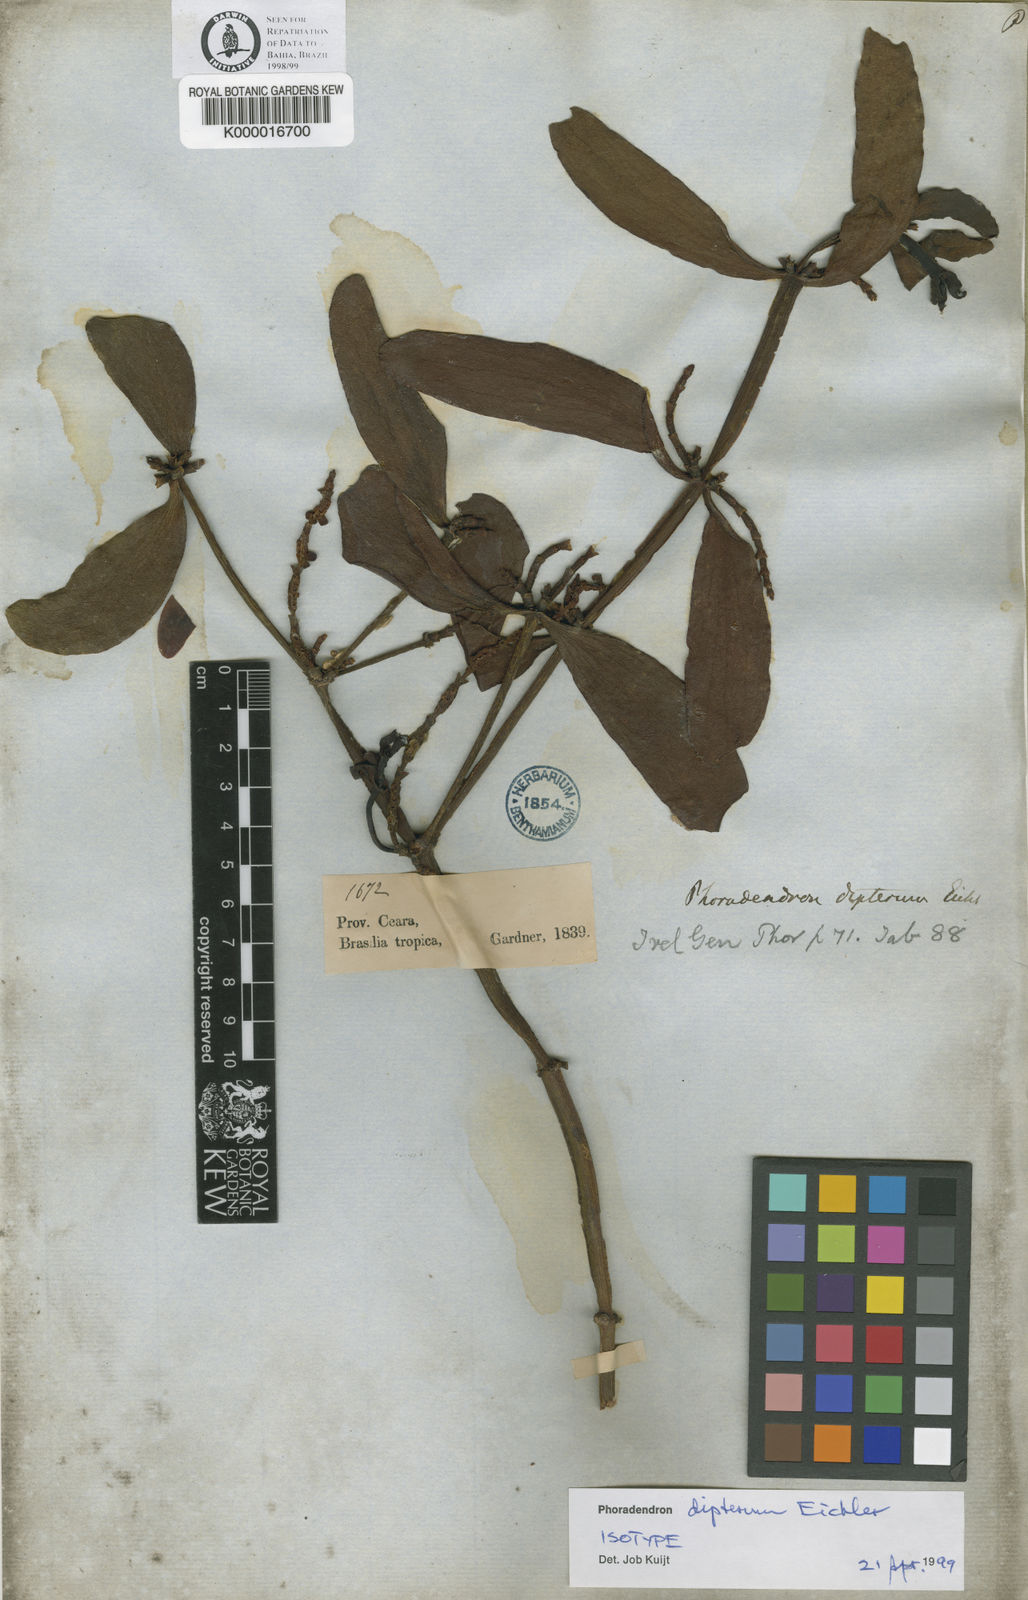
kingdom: Plantae
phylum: Tracheophyta
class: Magnoliopsida
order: Santalales
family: Viscaceae
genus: Phoradendron
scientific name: Phoradendron dipterum
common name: Fourpart mistletoe
